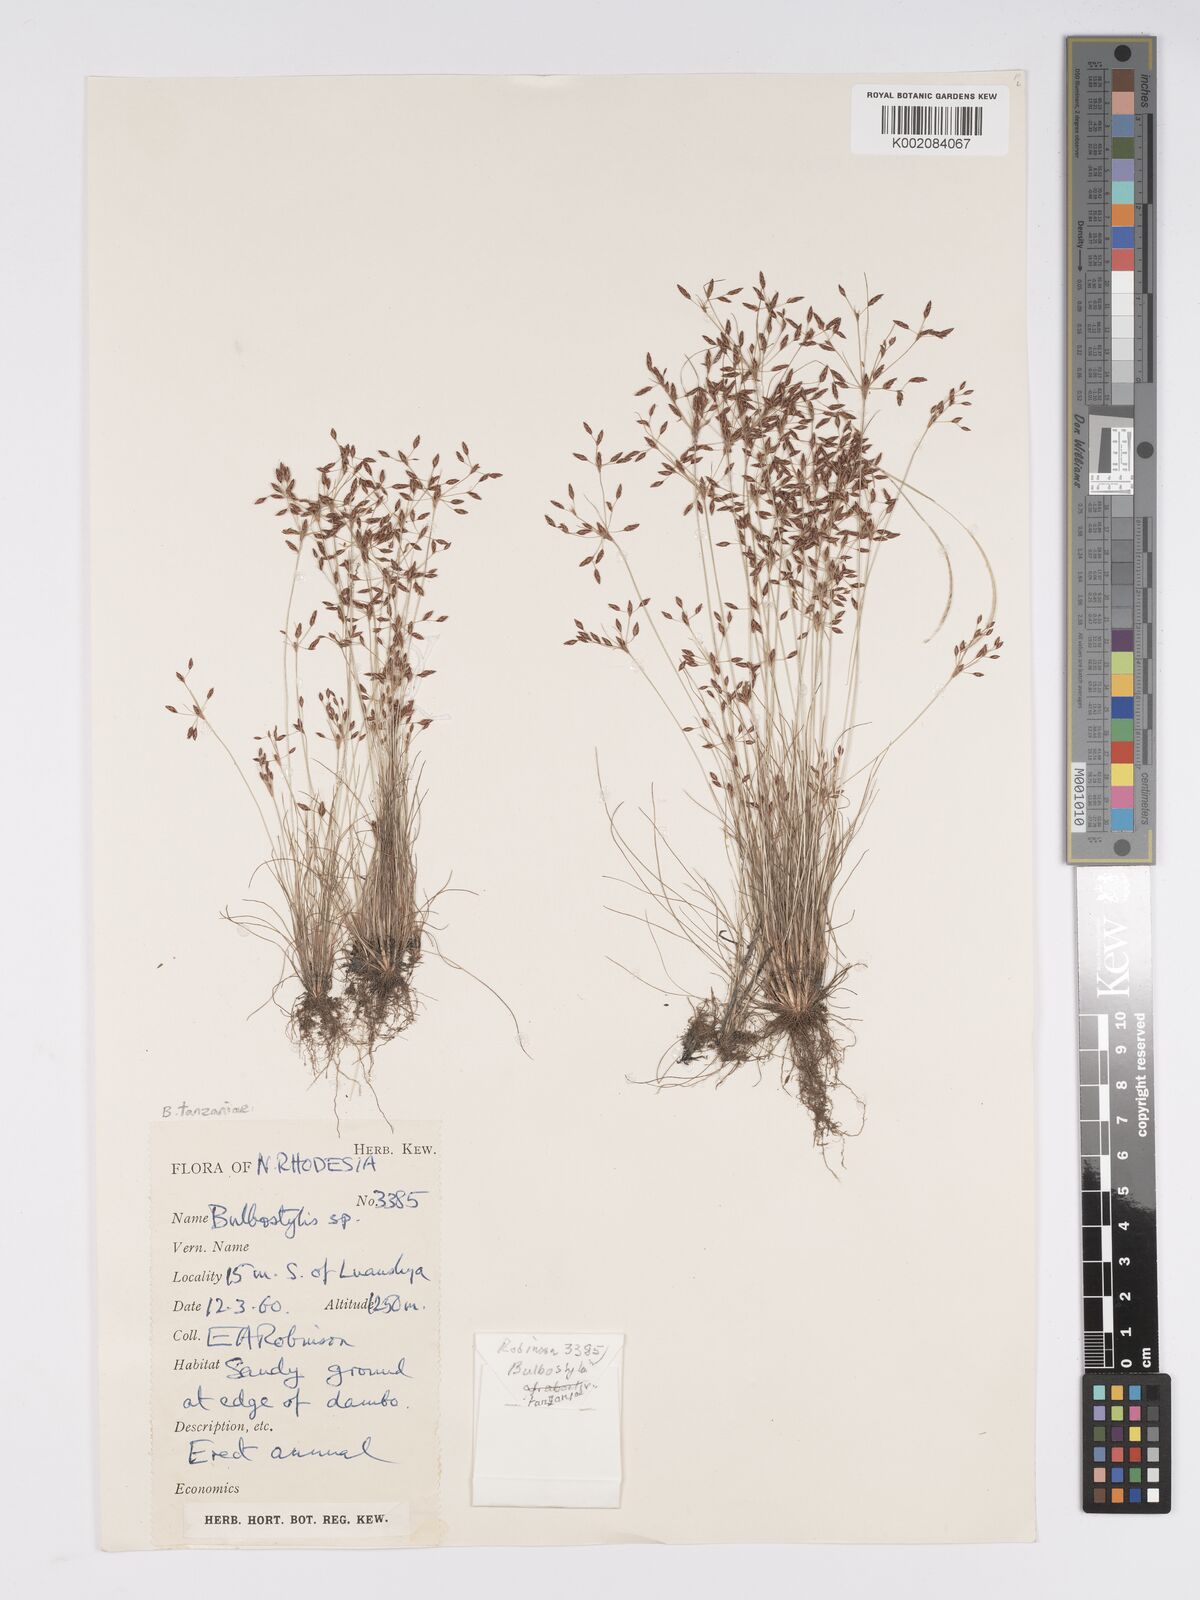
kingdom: Plantae
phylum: Tracheophyta
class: Liliopsida
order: Poales
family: Cyperaceae
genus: Bulbostylis
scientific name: Bulbostylis tanzaniae
